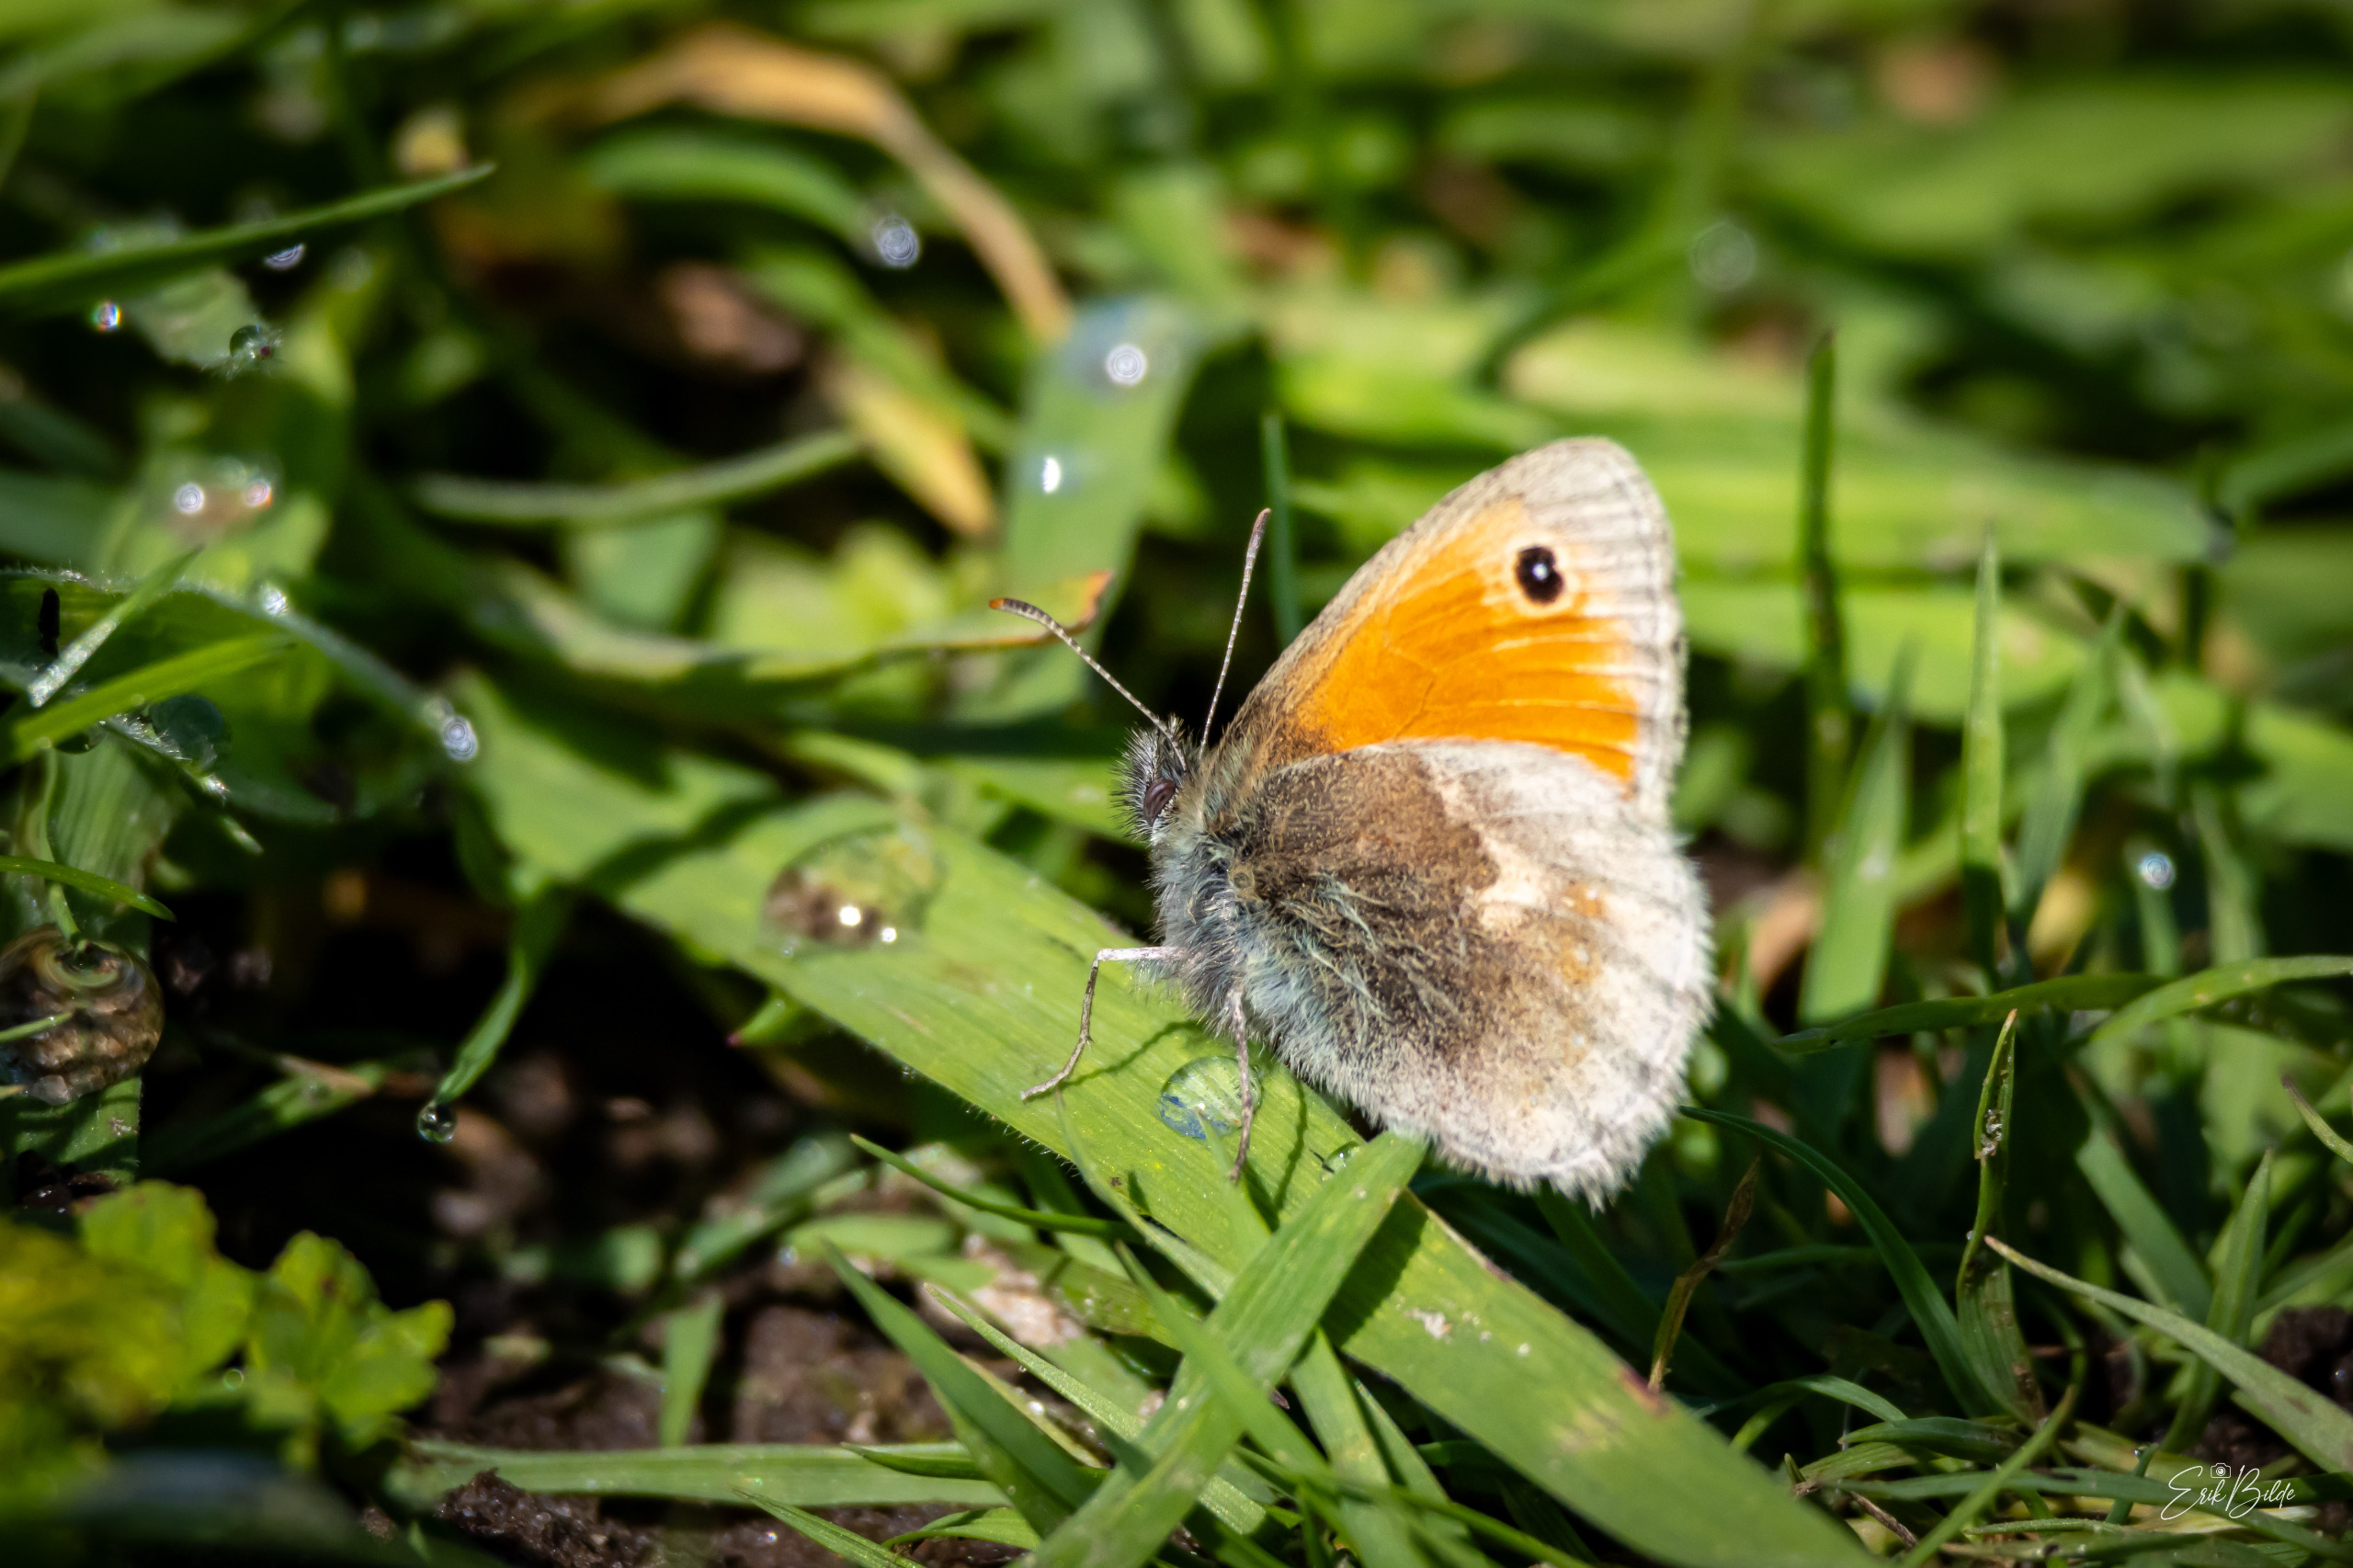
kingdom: Animalia
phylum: Arthropoda
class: Insecta
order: Lepidoptera
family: Nymphalidae
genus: Coenonympha
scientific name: Coenonympha pamphilus
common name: Okkergul randøje
